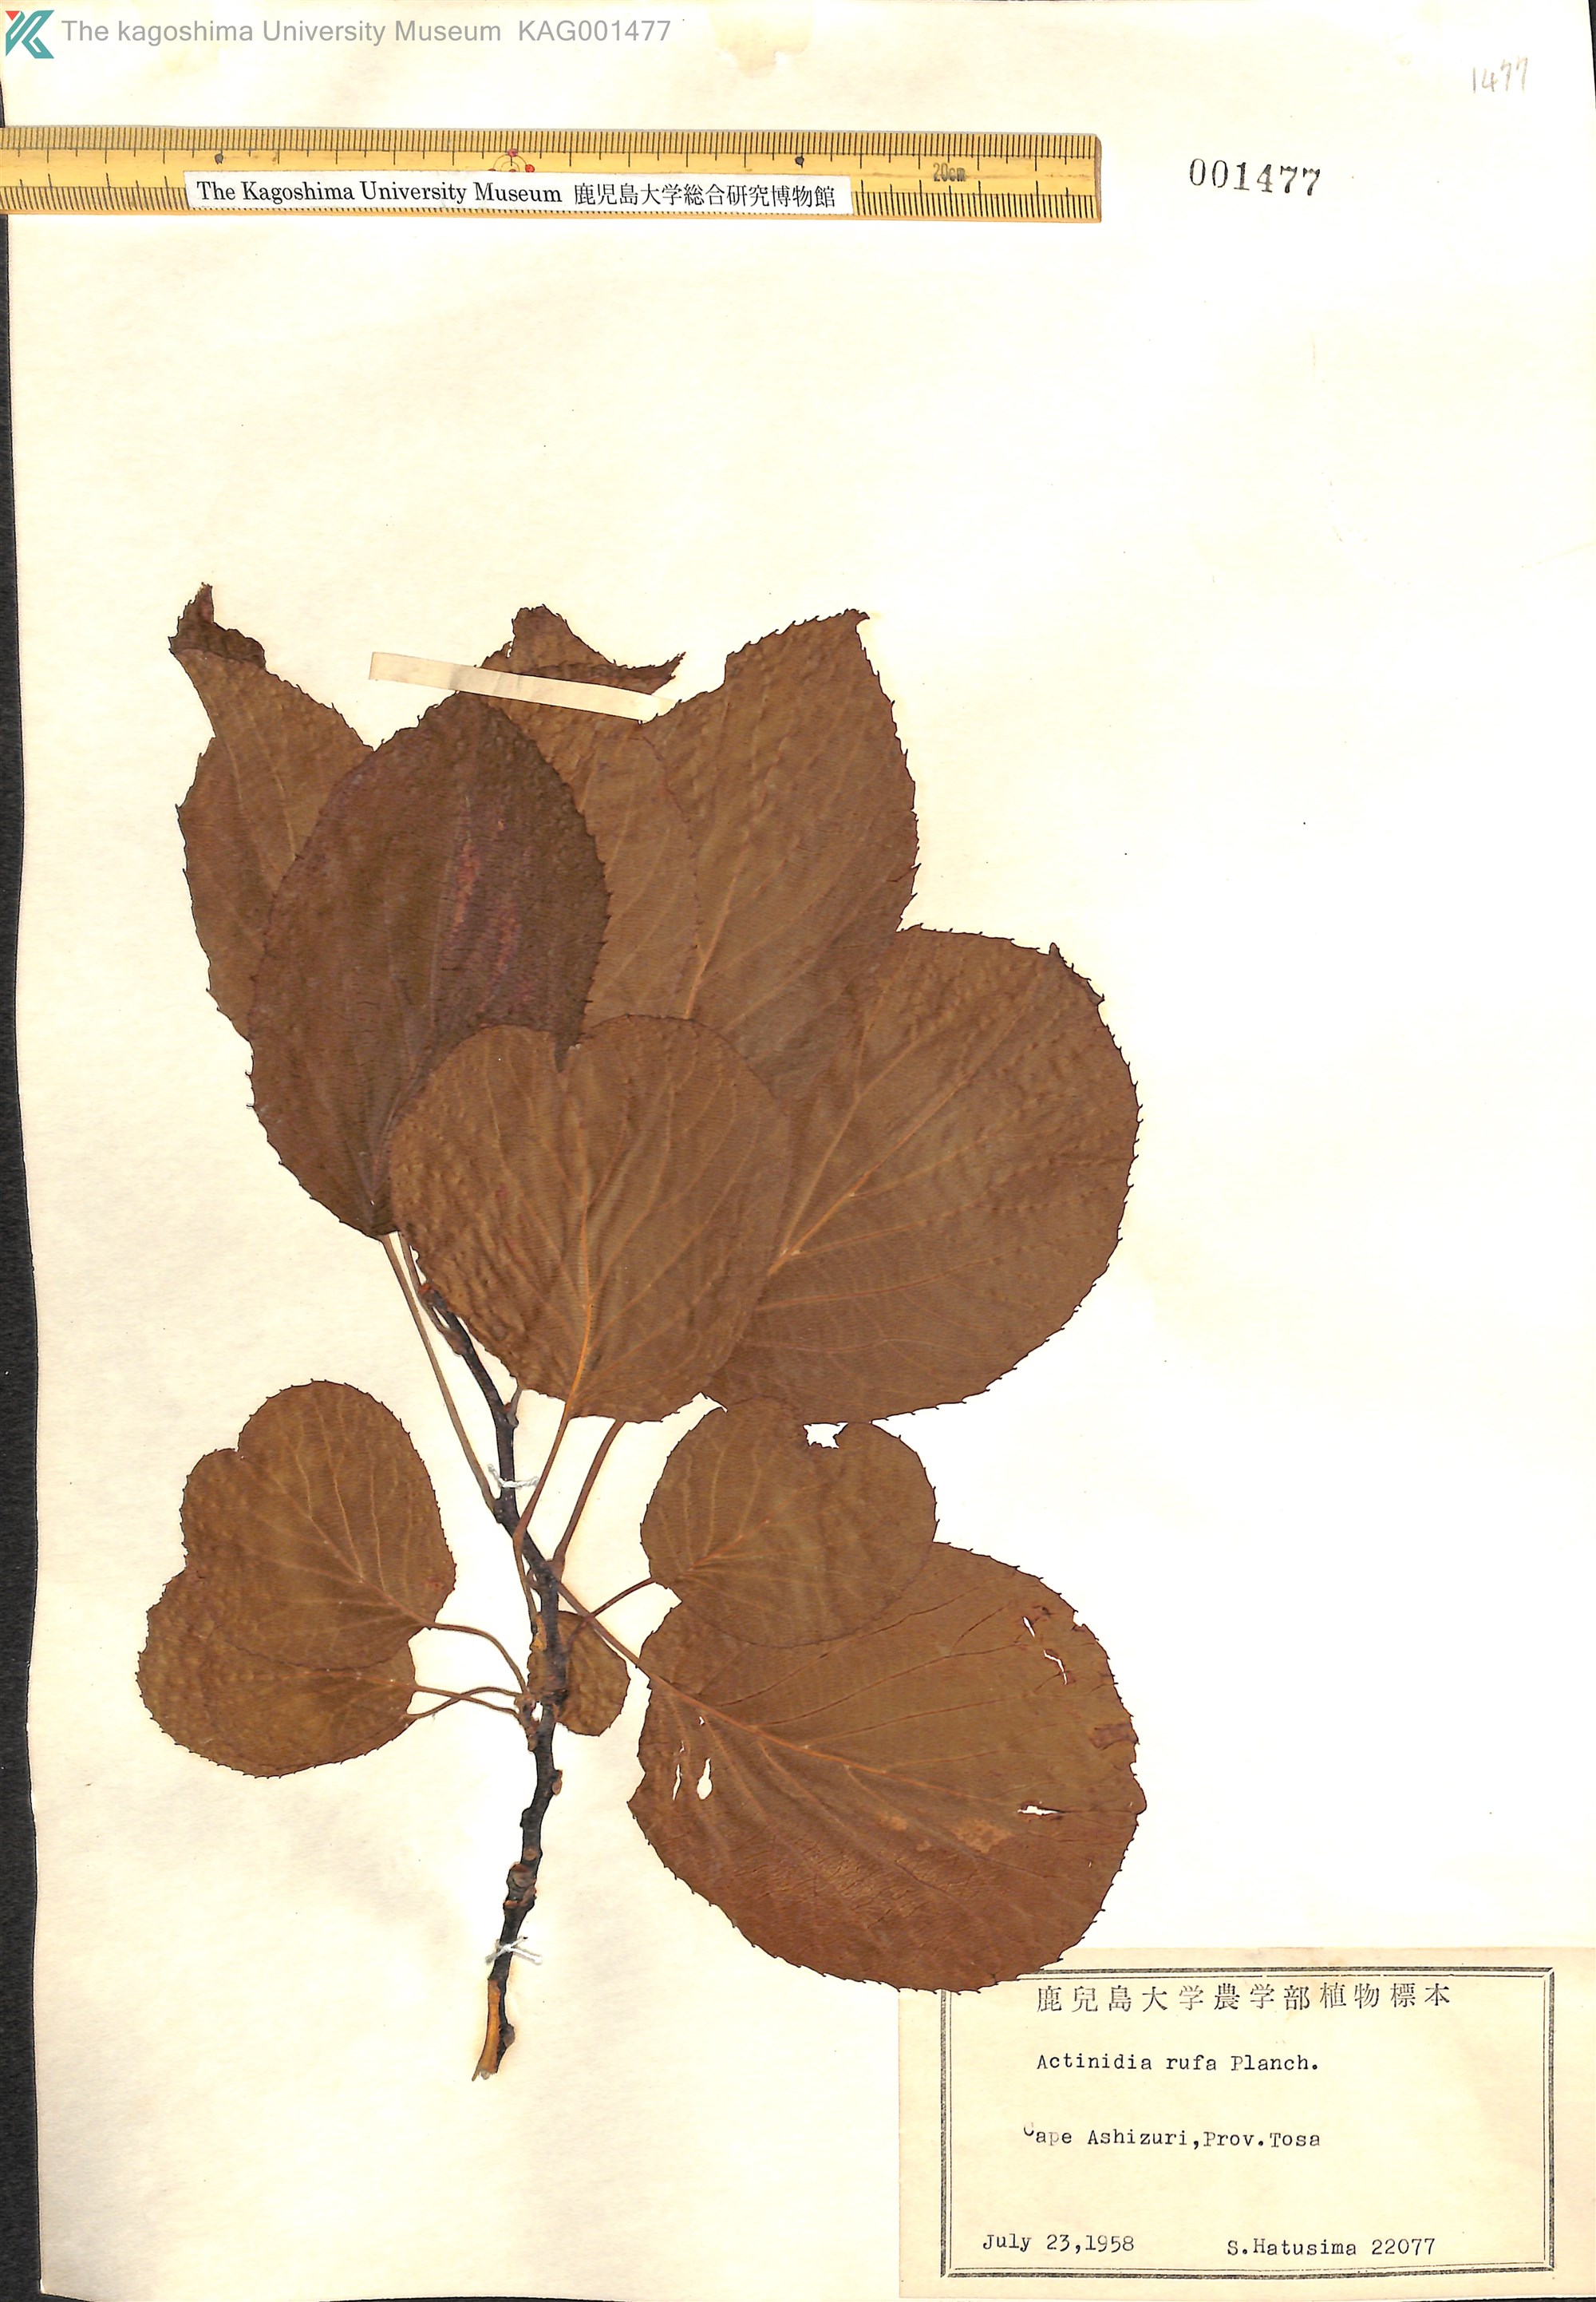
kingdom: Plantae
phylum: Tracheophyta
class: Magnoliopsida
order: Ericales
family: Actinidiaceae
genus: Actinidia
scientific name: Actinidia rufa
